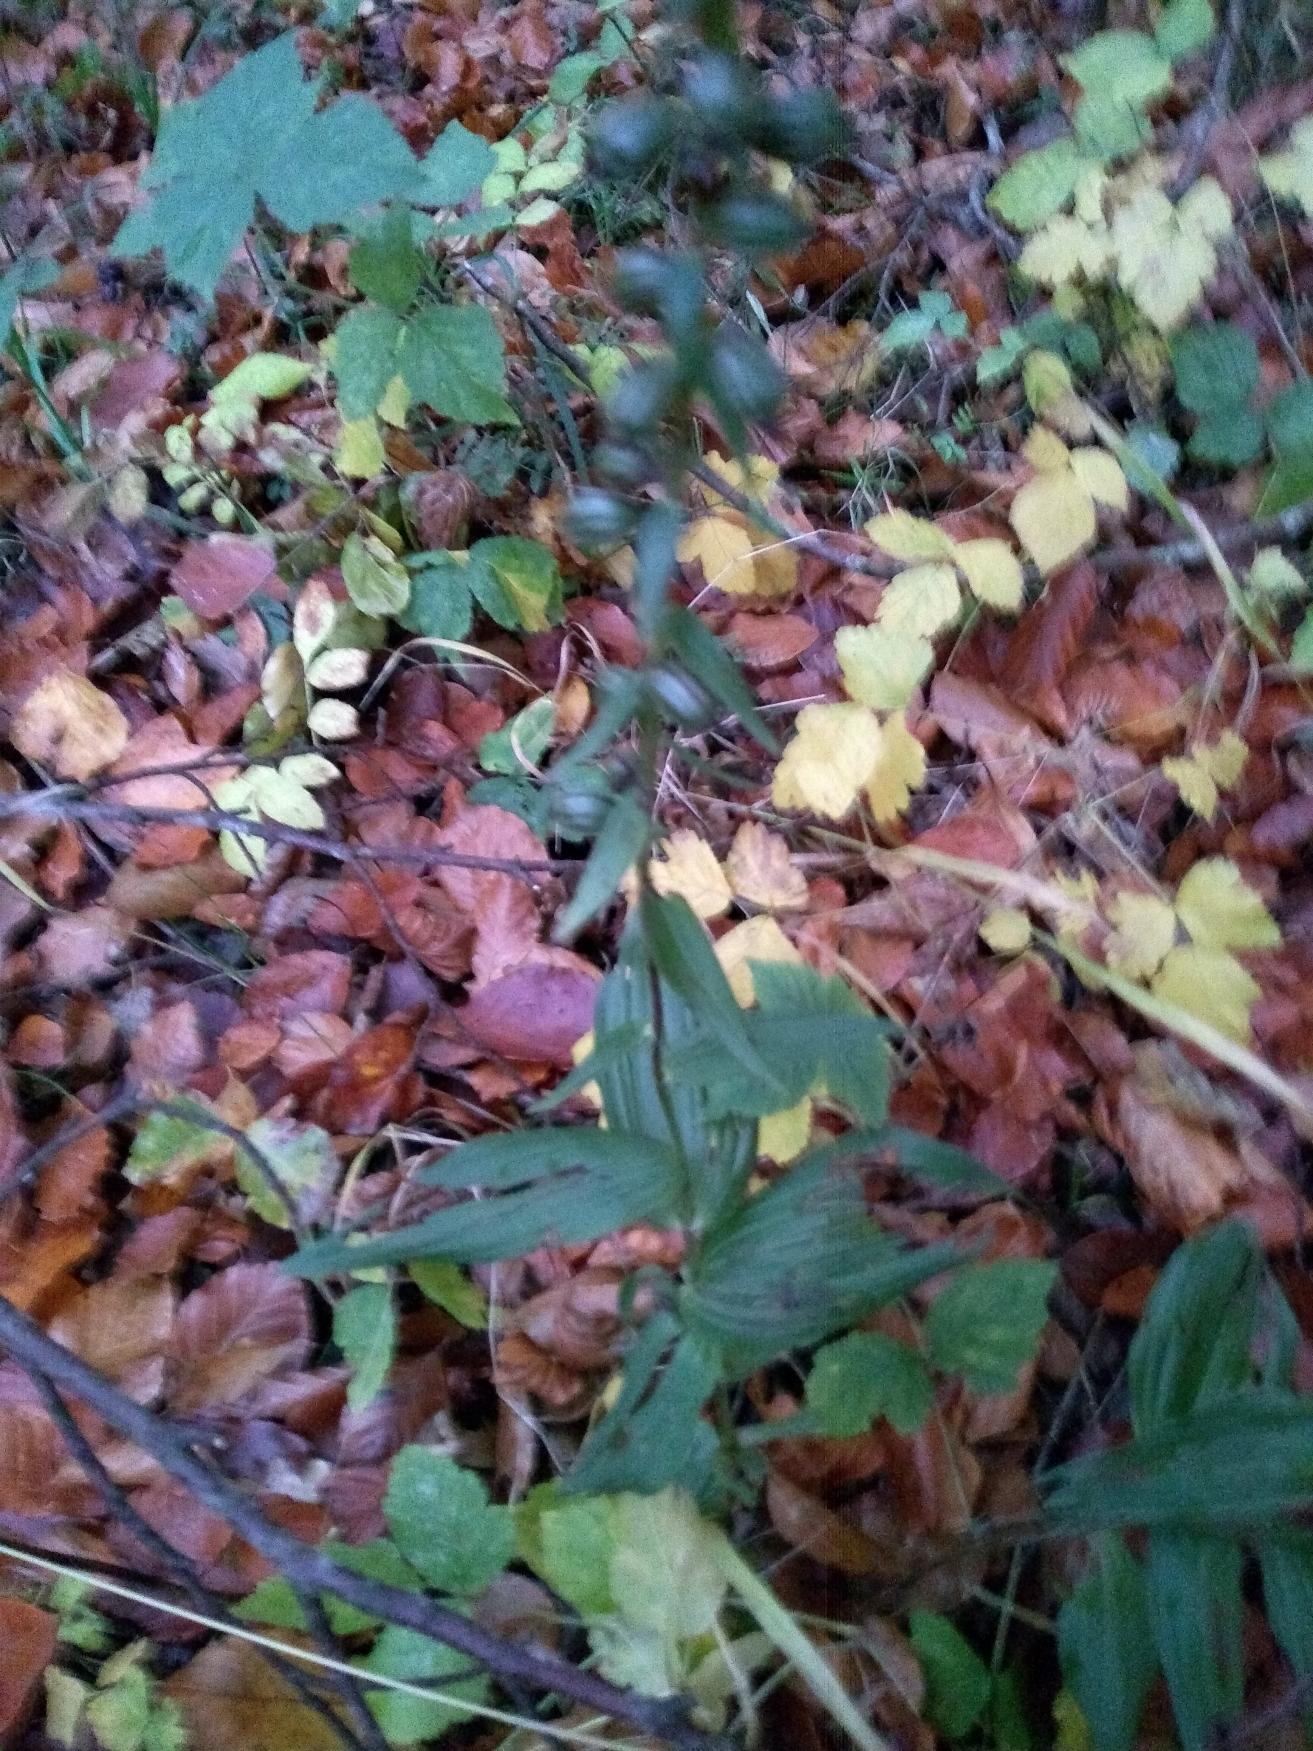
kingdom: Plantae
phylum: Tracheophyta
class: Liliopsida
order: Asparagales
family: Orchidaceae
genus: Epipactis
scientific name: Epipactis helleborine
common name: Skov-hullæbe
